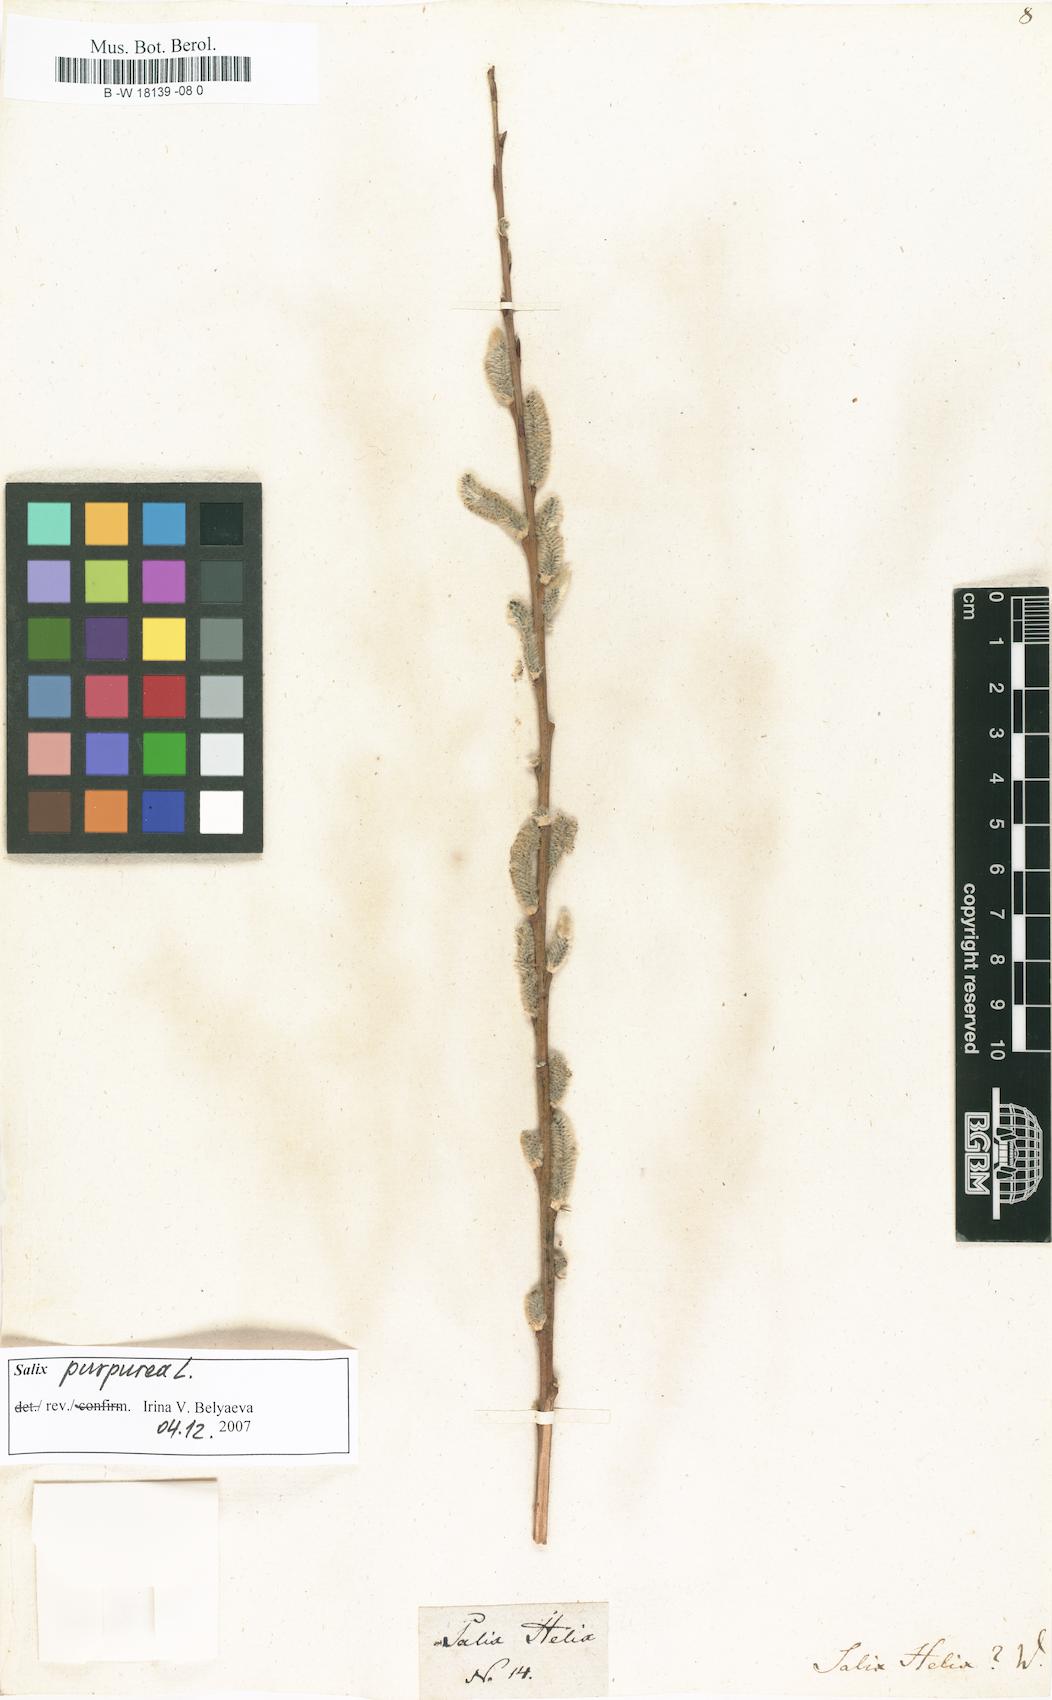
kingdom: Plantae
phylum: Tracheophyta
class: Magnoliopsida
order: Malpighiales
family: Salicaceae
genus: Salix
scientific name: Salix purpurea
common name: Purple willow
